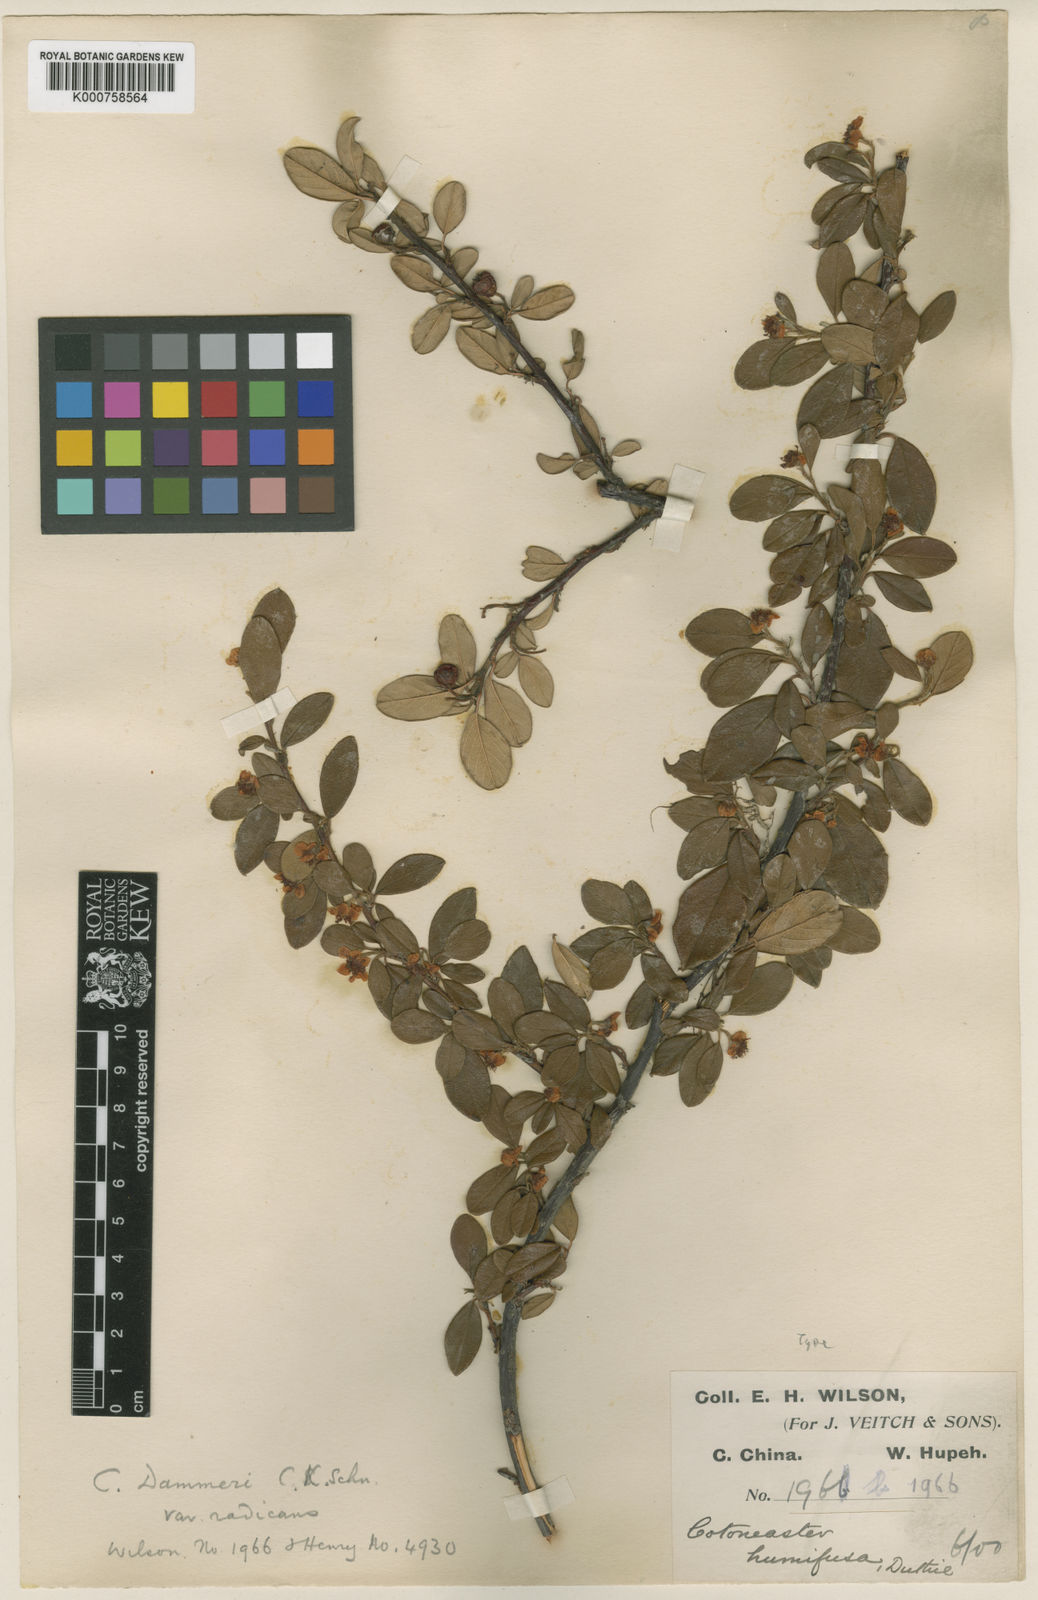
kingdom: Plantae
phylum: Tracheophyta
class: Magnoliopsida
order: Rosales
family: Rosaceae
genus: Cotoneaster
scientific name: Cotoneaster dammeri
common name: Bearberry cotoneaster
